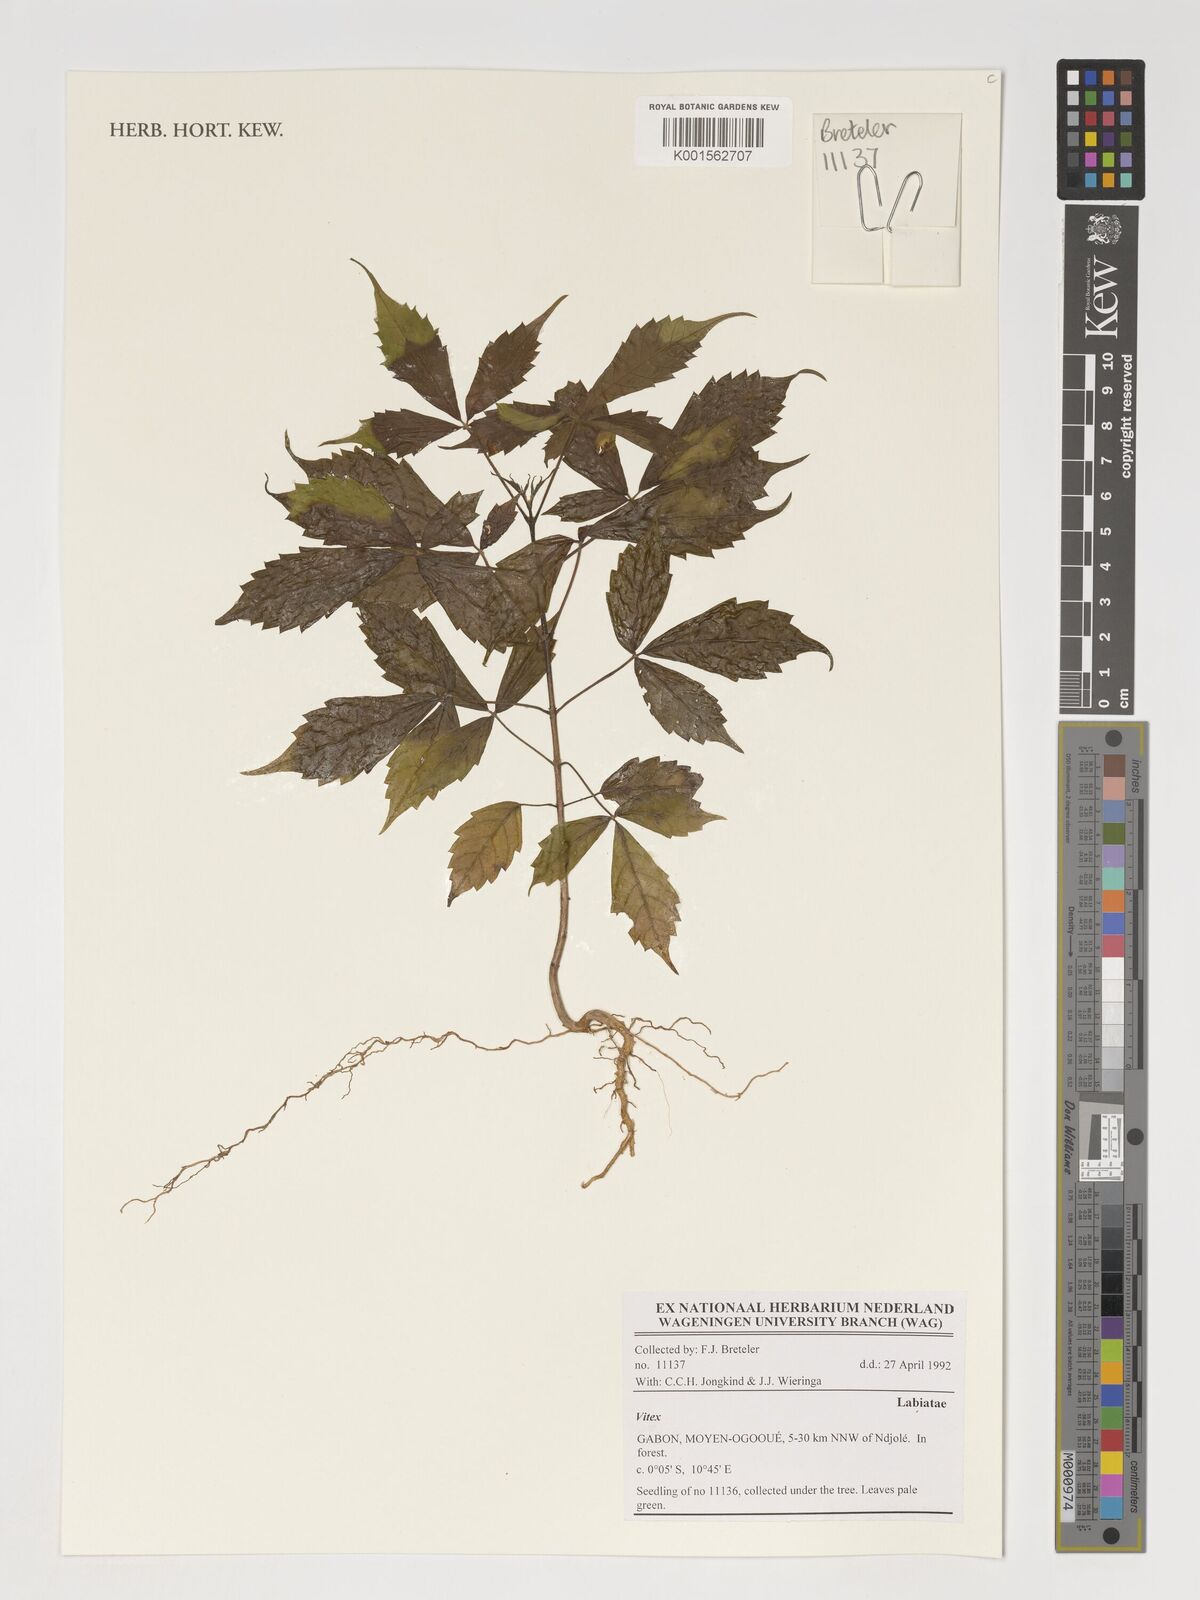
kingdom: Plantae
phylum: Tracheophyta
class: Magnoliopsida
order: Lamiales
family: Lamiaceae
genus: Vitex
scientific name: Vitex
